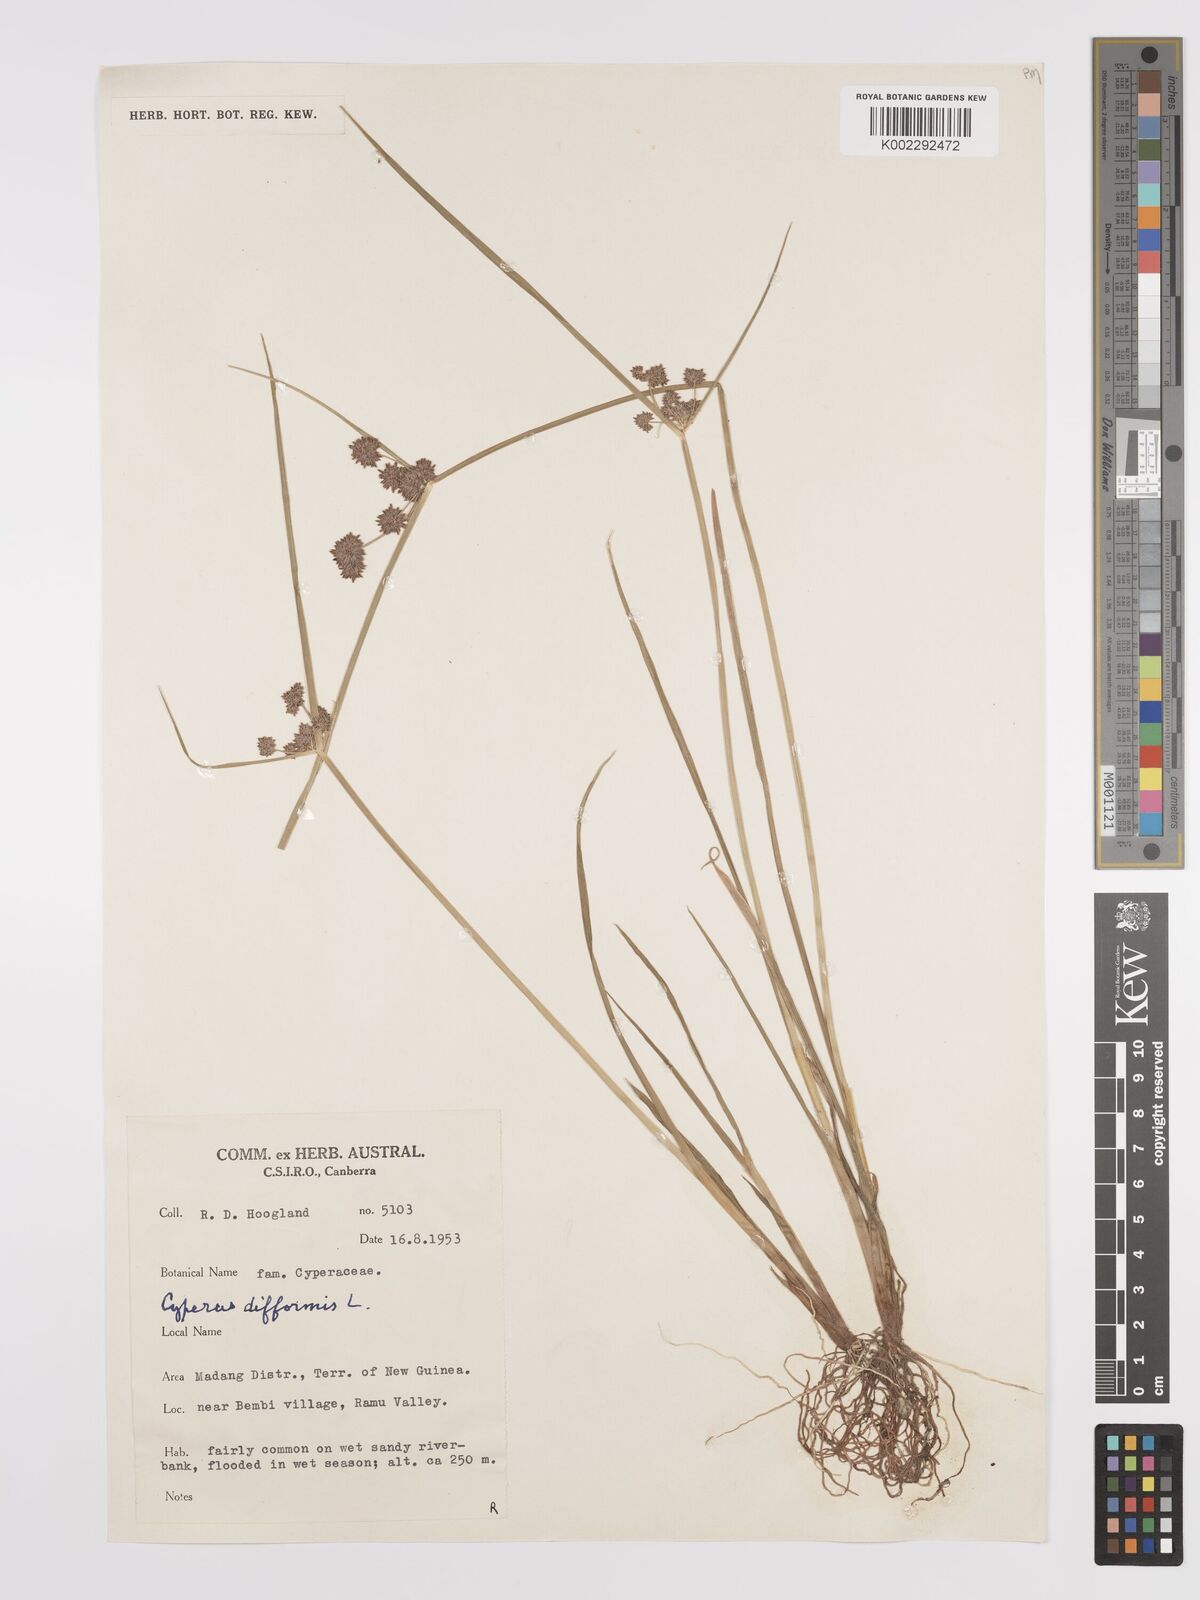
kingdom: Plantae
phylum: Tracheophyta
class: Liliopsida
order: Poales
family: Cyperaceae
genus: Cyperus
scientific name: Cyperus difformis
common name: Variable flatsedge
